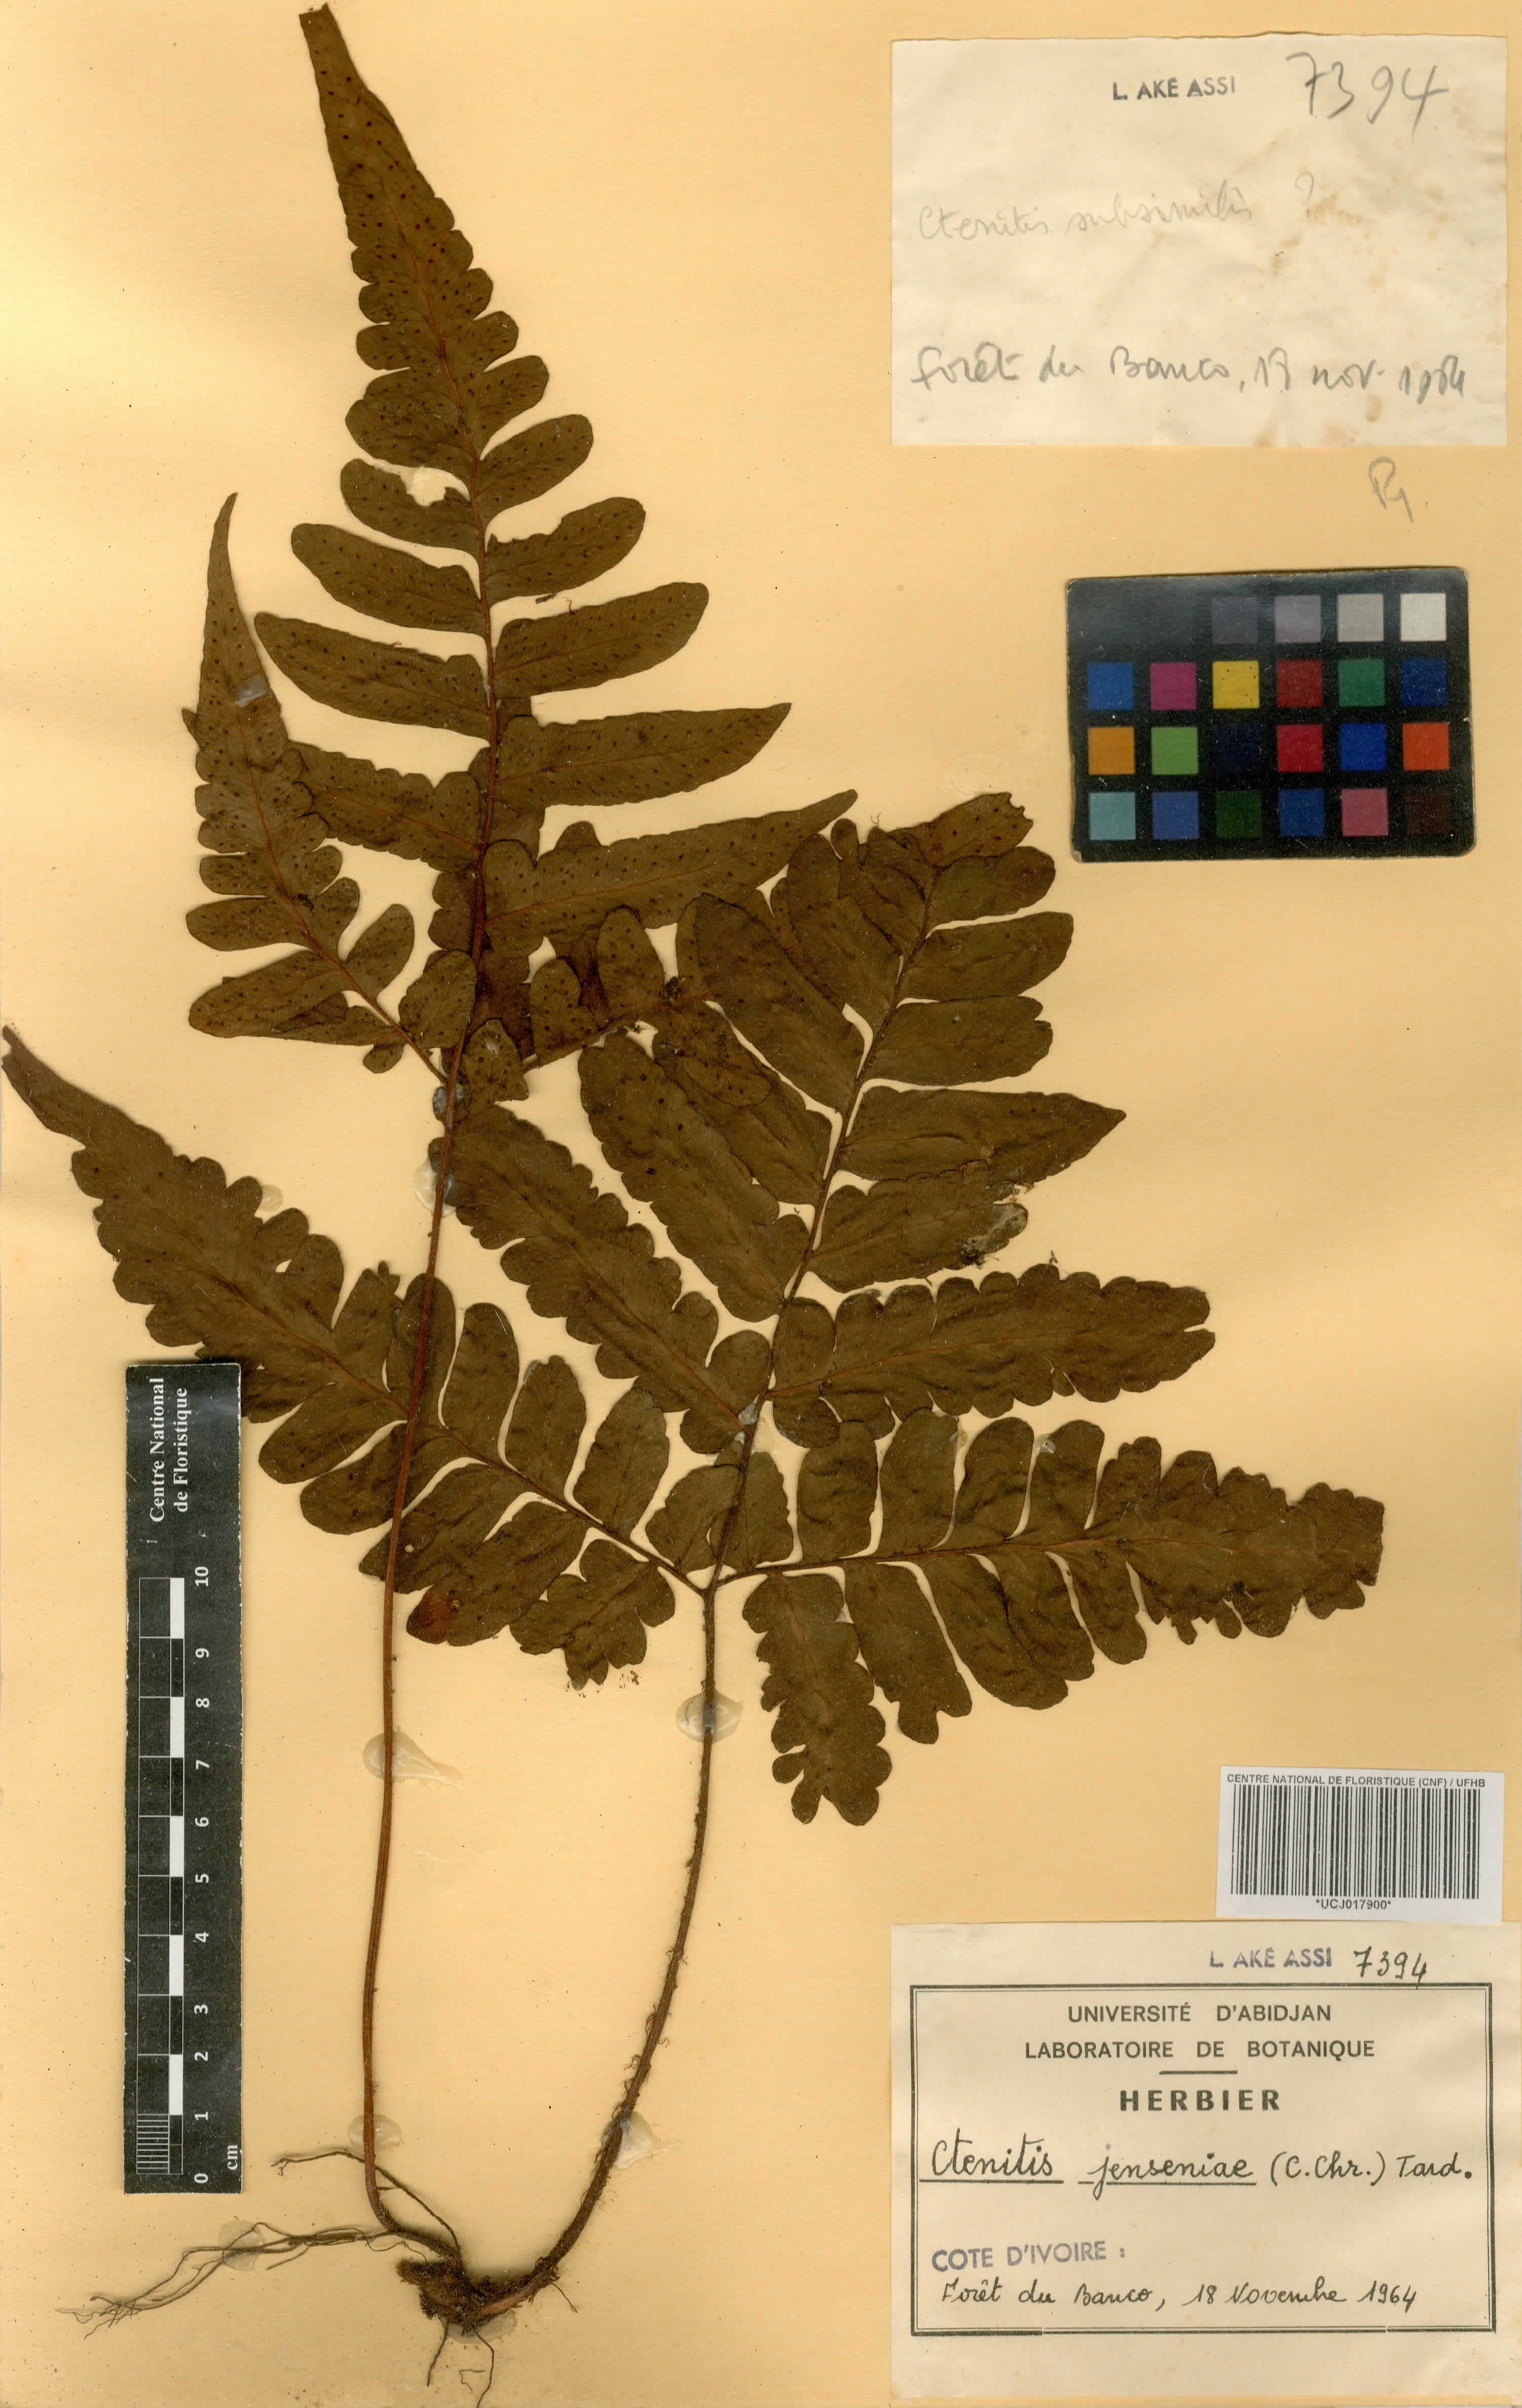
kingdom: Plantae
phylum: Tracheophyta
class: Polypodiopsida
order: Polypodiales
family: Tectariaceae
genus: Triplophyllum
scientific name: Triplophyllum jenseniae
